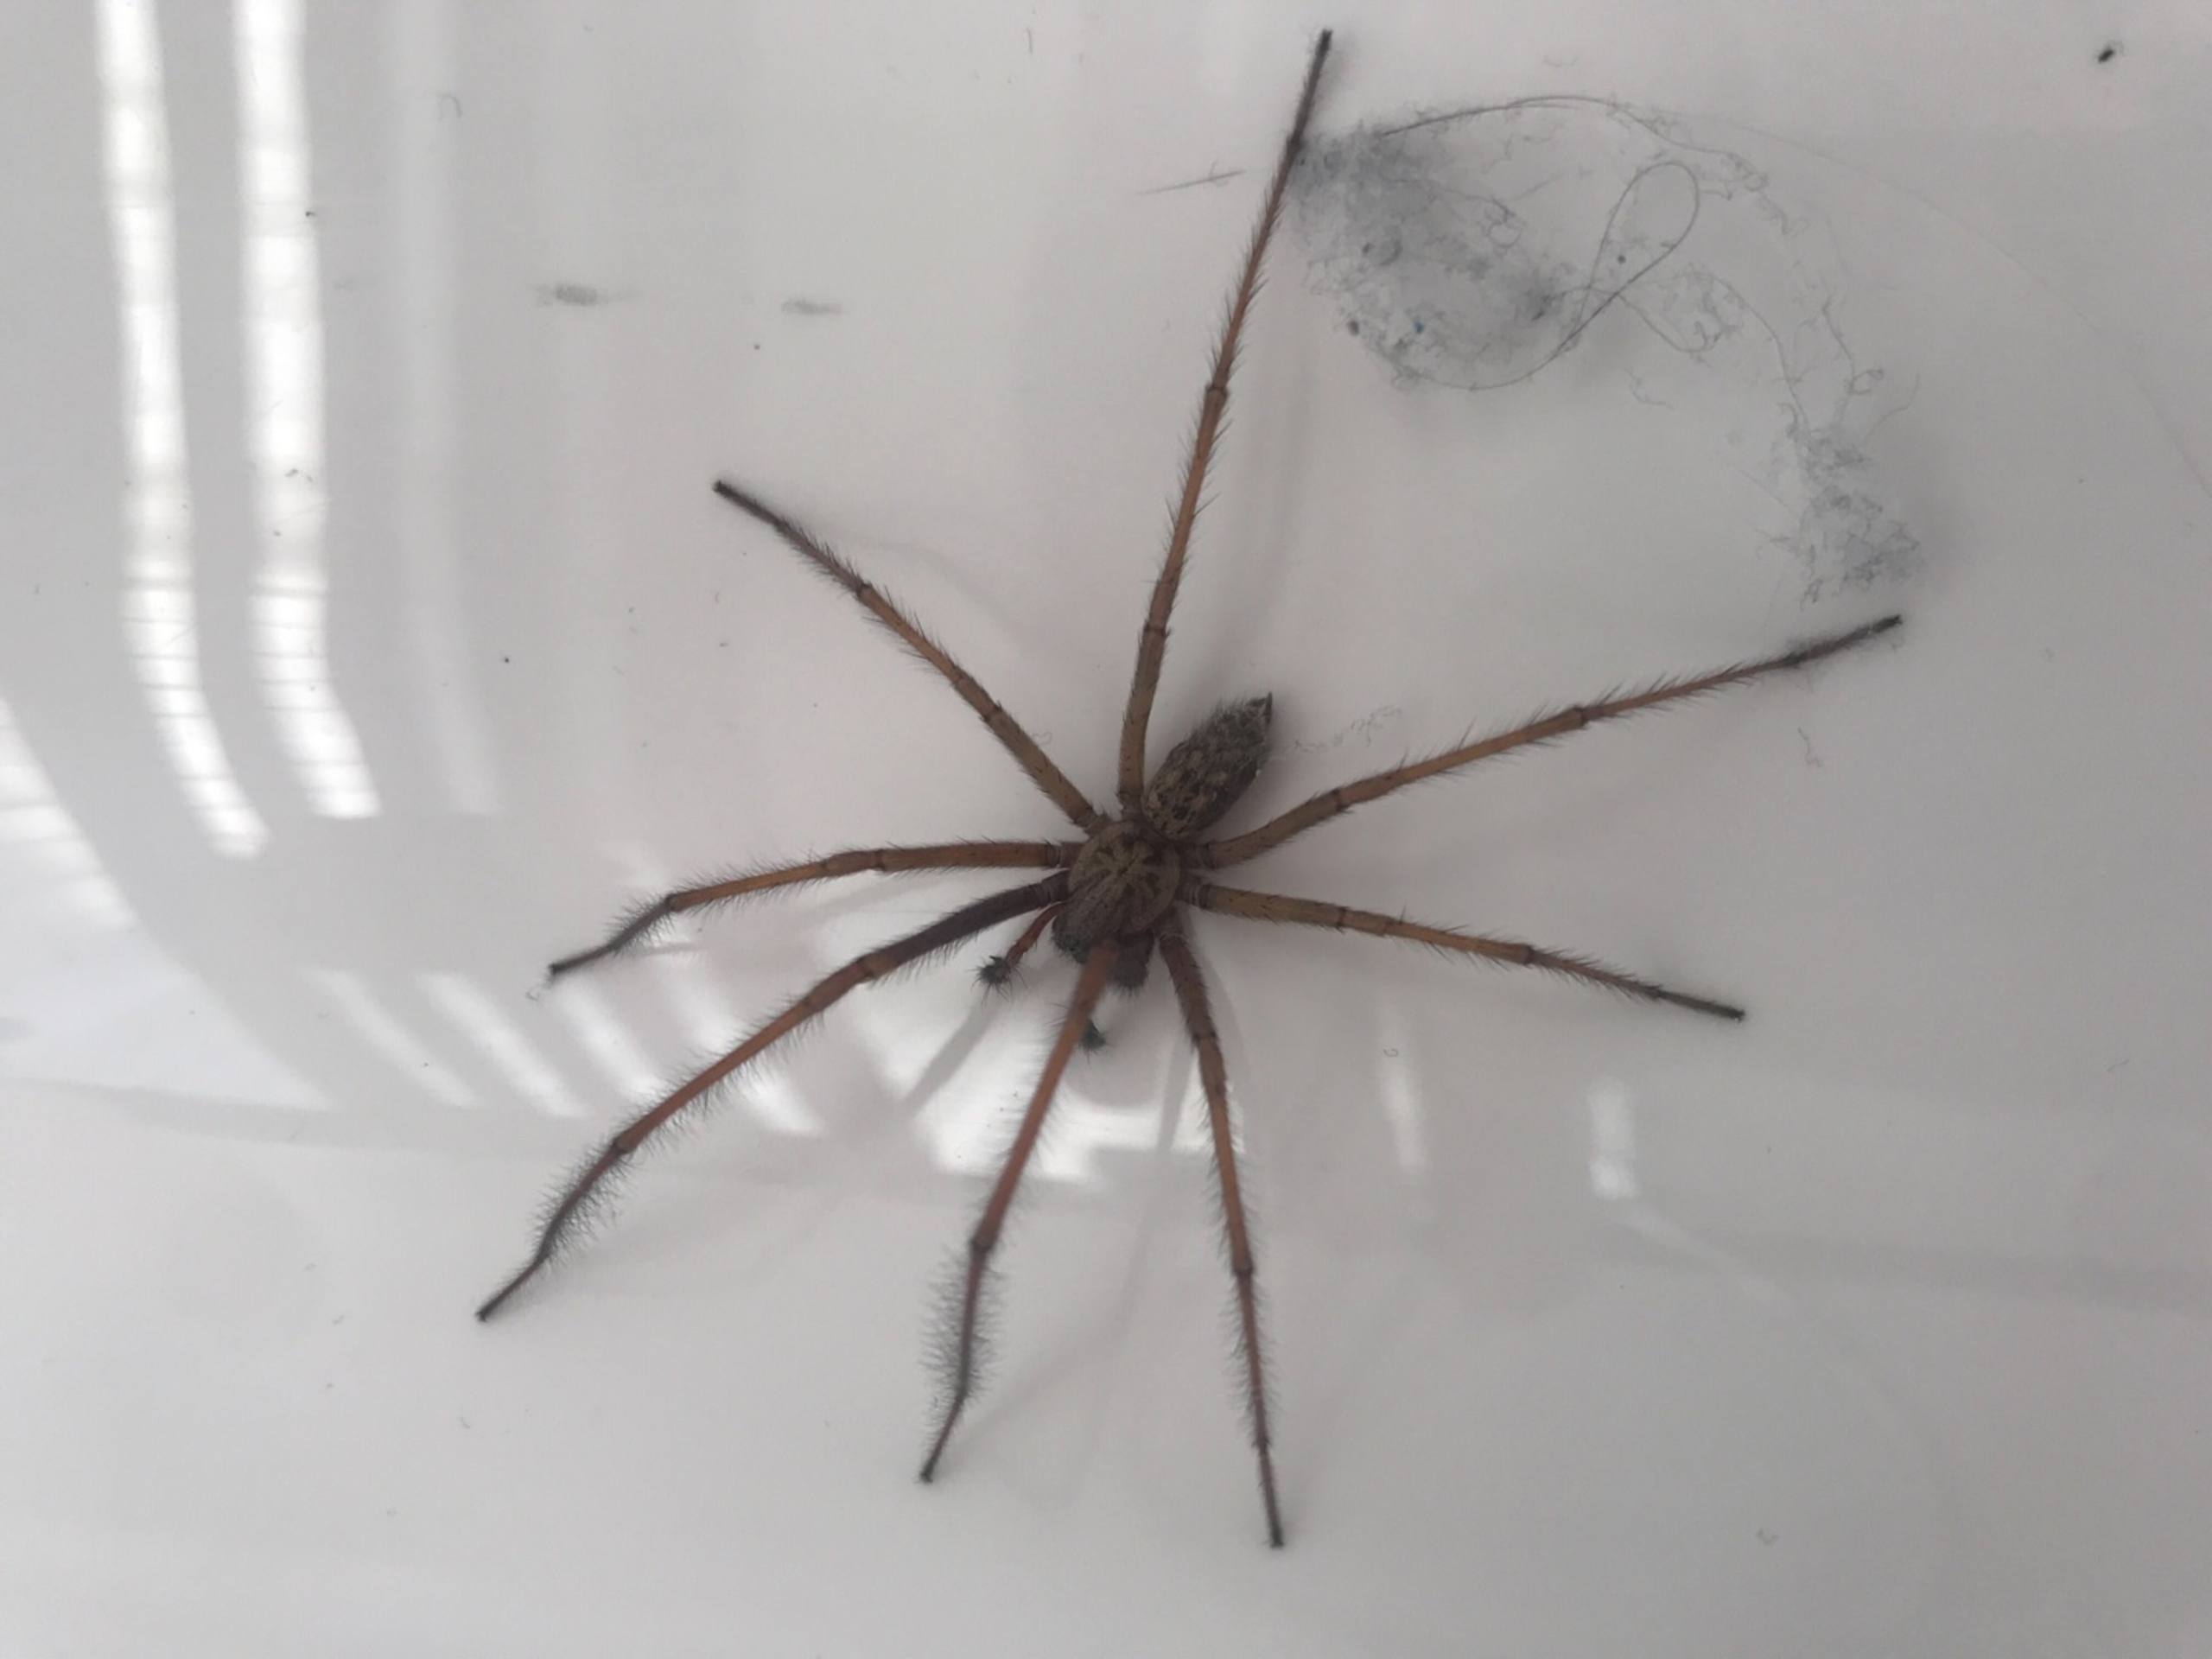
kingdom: Animalia
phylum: Arthropoda
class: Arachnida
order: Araneae
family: Agelenidae
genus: Eratigena
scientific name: Eratigena atrica
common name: Stor husedderkop
